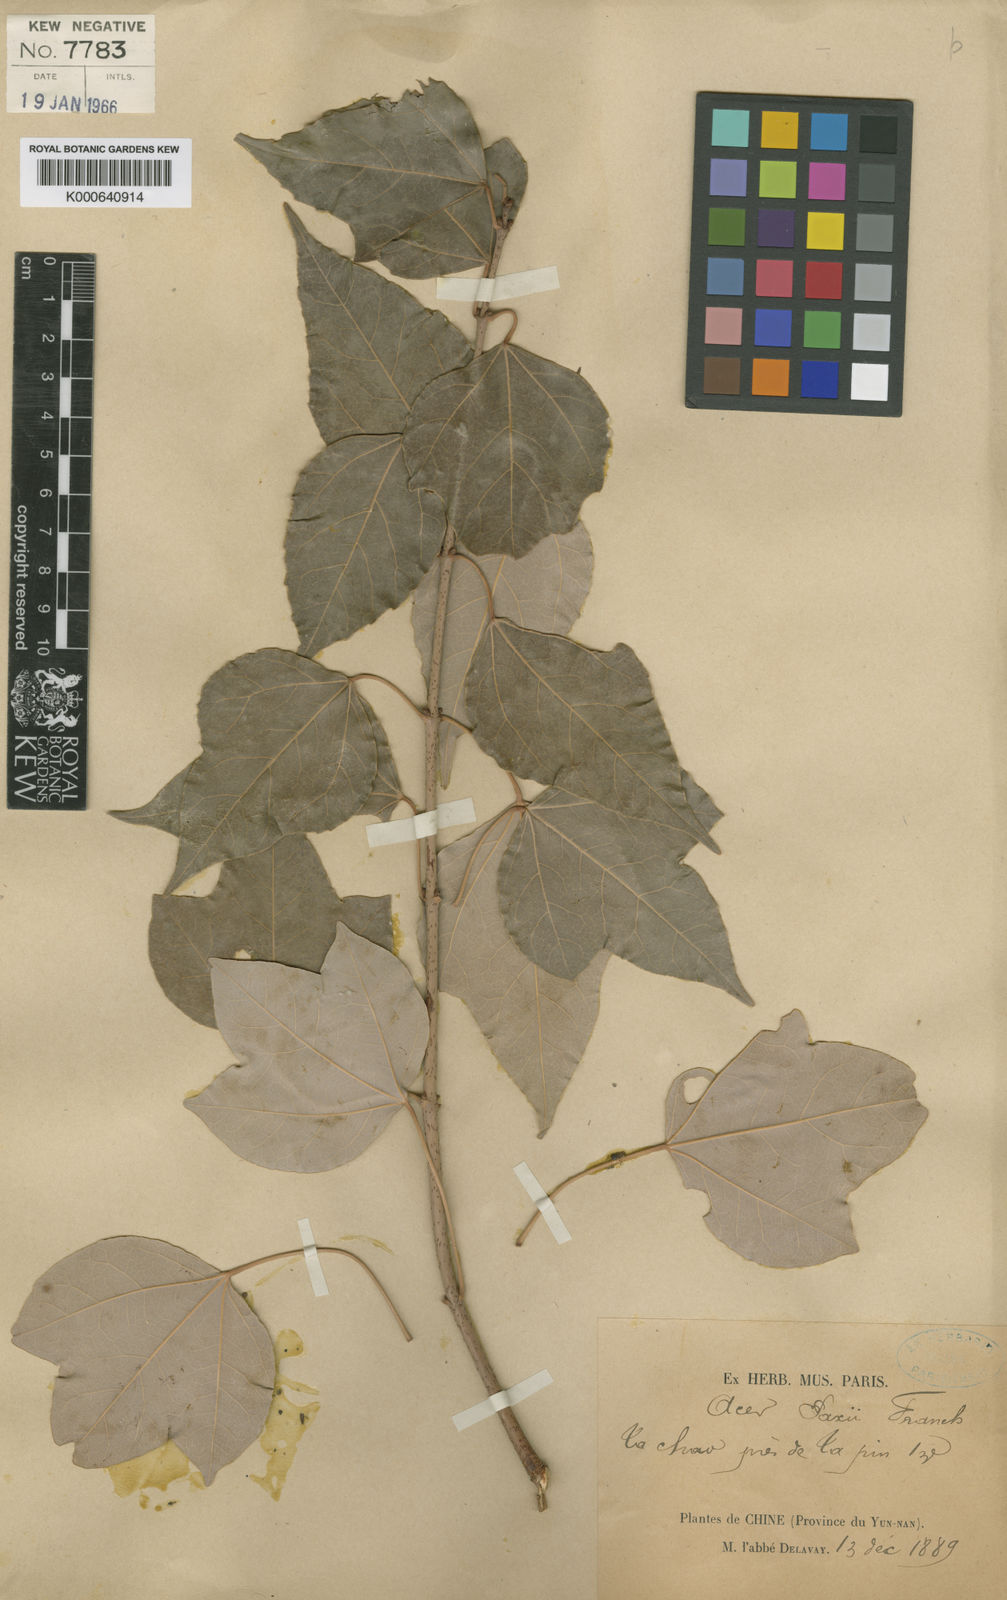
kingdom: Plantae
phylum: Tracheophyta
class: Magnoliopsida
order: Sapindales
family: Sapindaceae
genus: Acer
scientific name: Acer paxii
